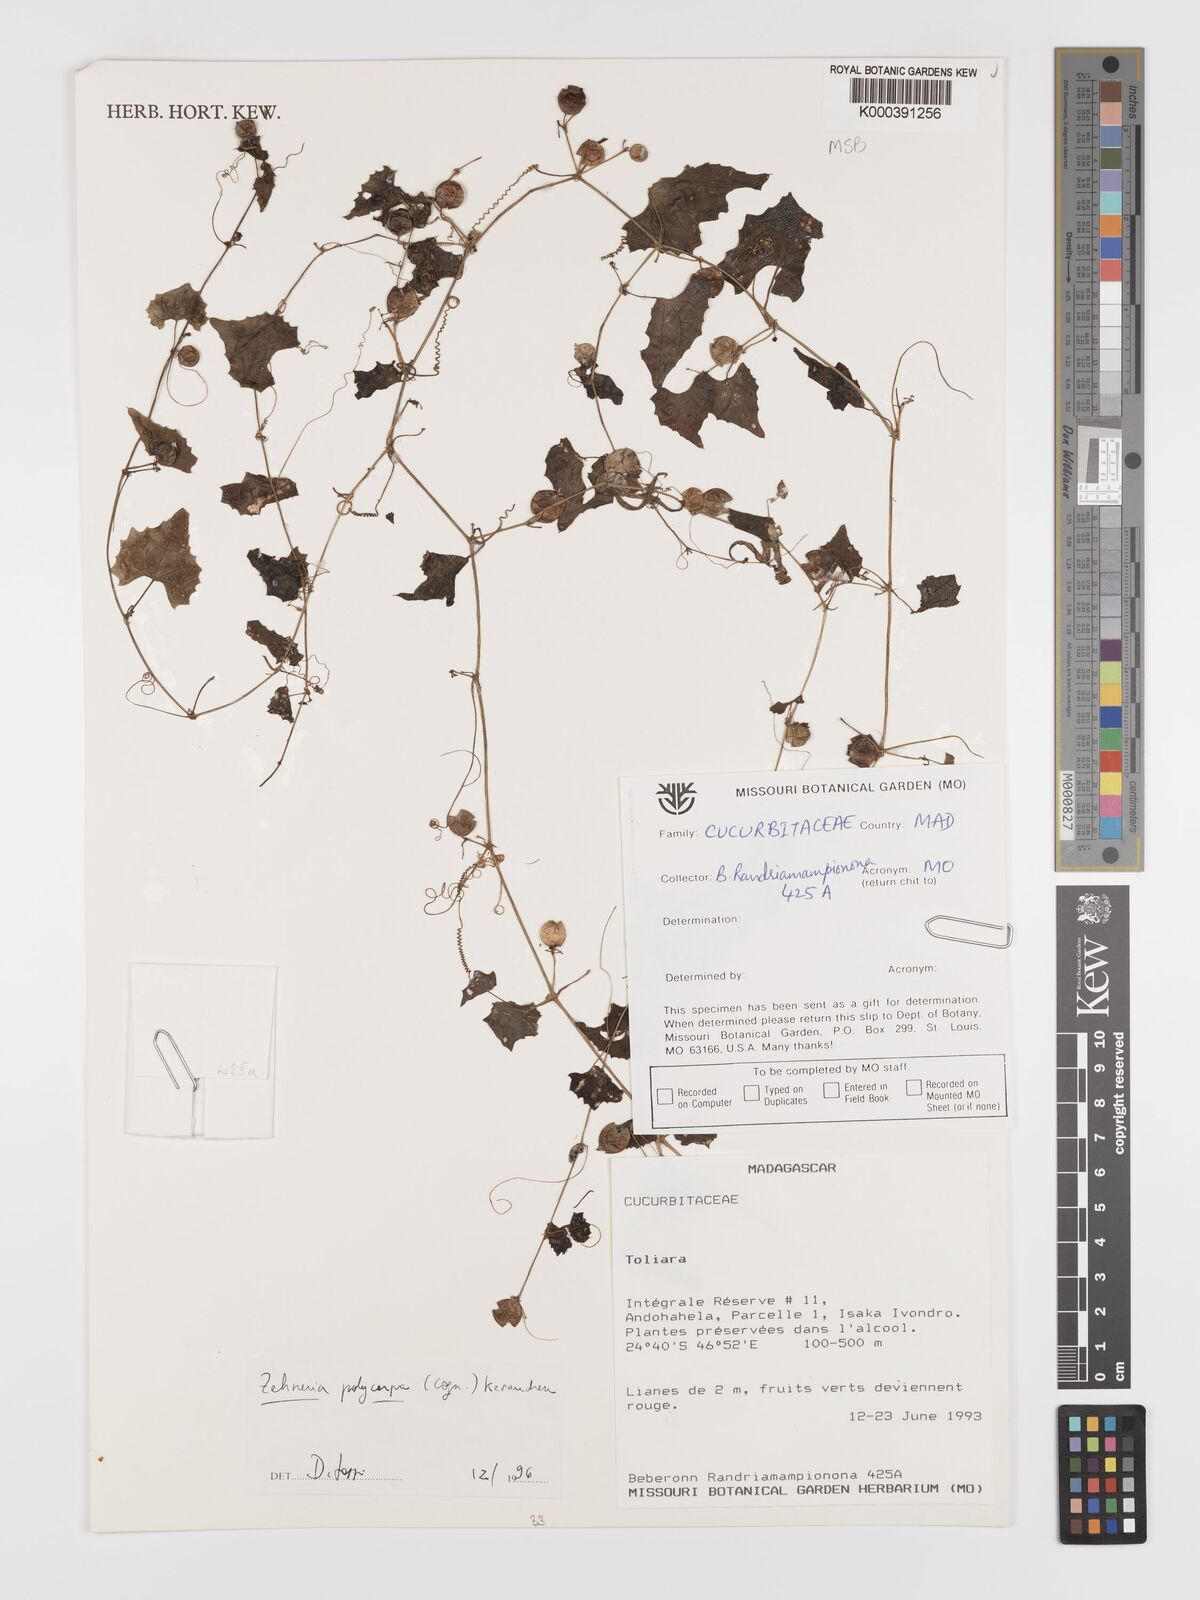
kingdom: Plantae
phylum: Tracheophyta
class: Magnoliopsida
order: Cucurbitales
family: Cucurbitaceae
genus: Zehneria
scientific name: Zehneria polycarpa
